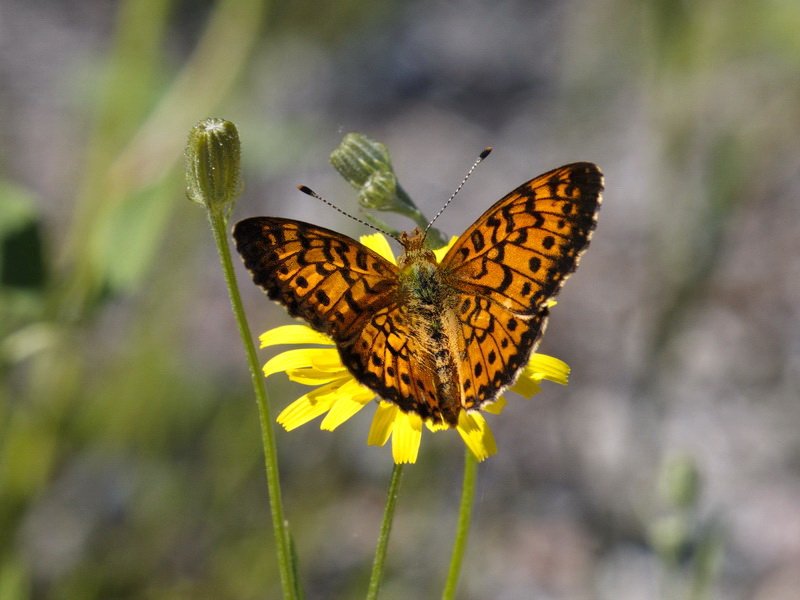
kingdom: Animalia
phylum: Arthropoda
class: Insecta
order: Lepidoptera
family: Nymphalidae
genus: Boloria
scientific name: Boloria selene
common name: Silver-bordered Fritillary
